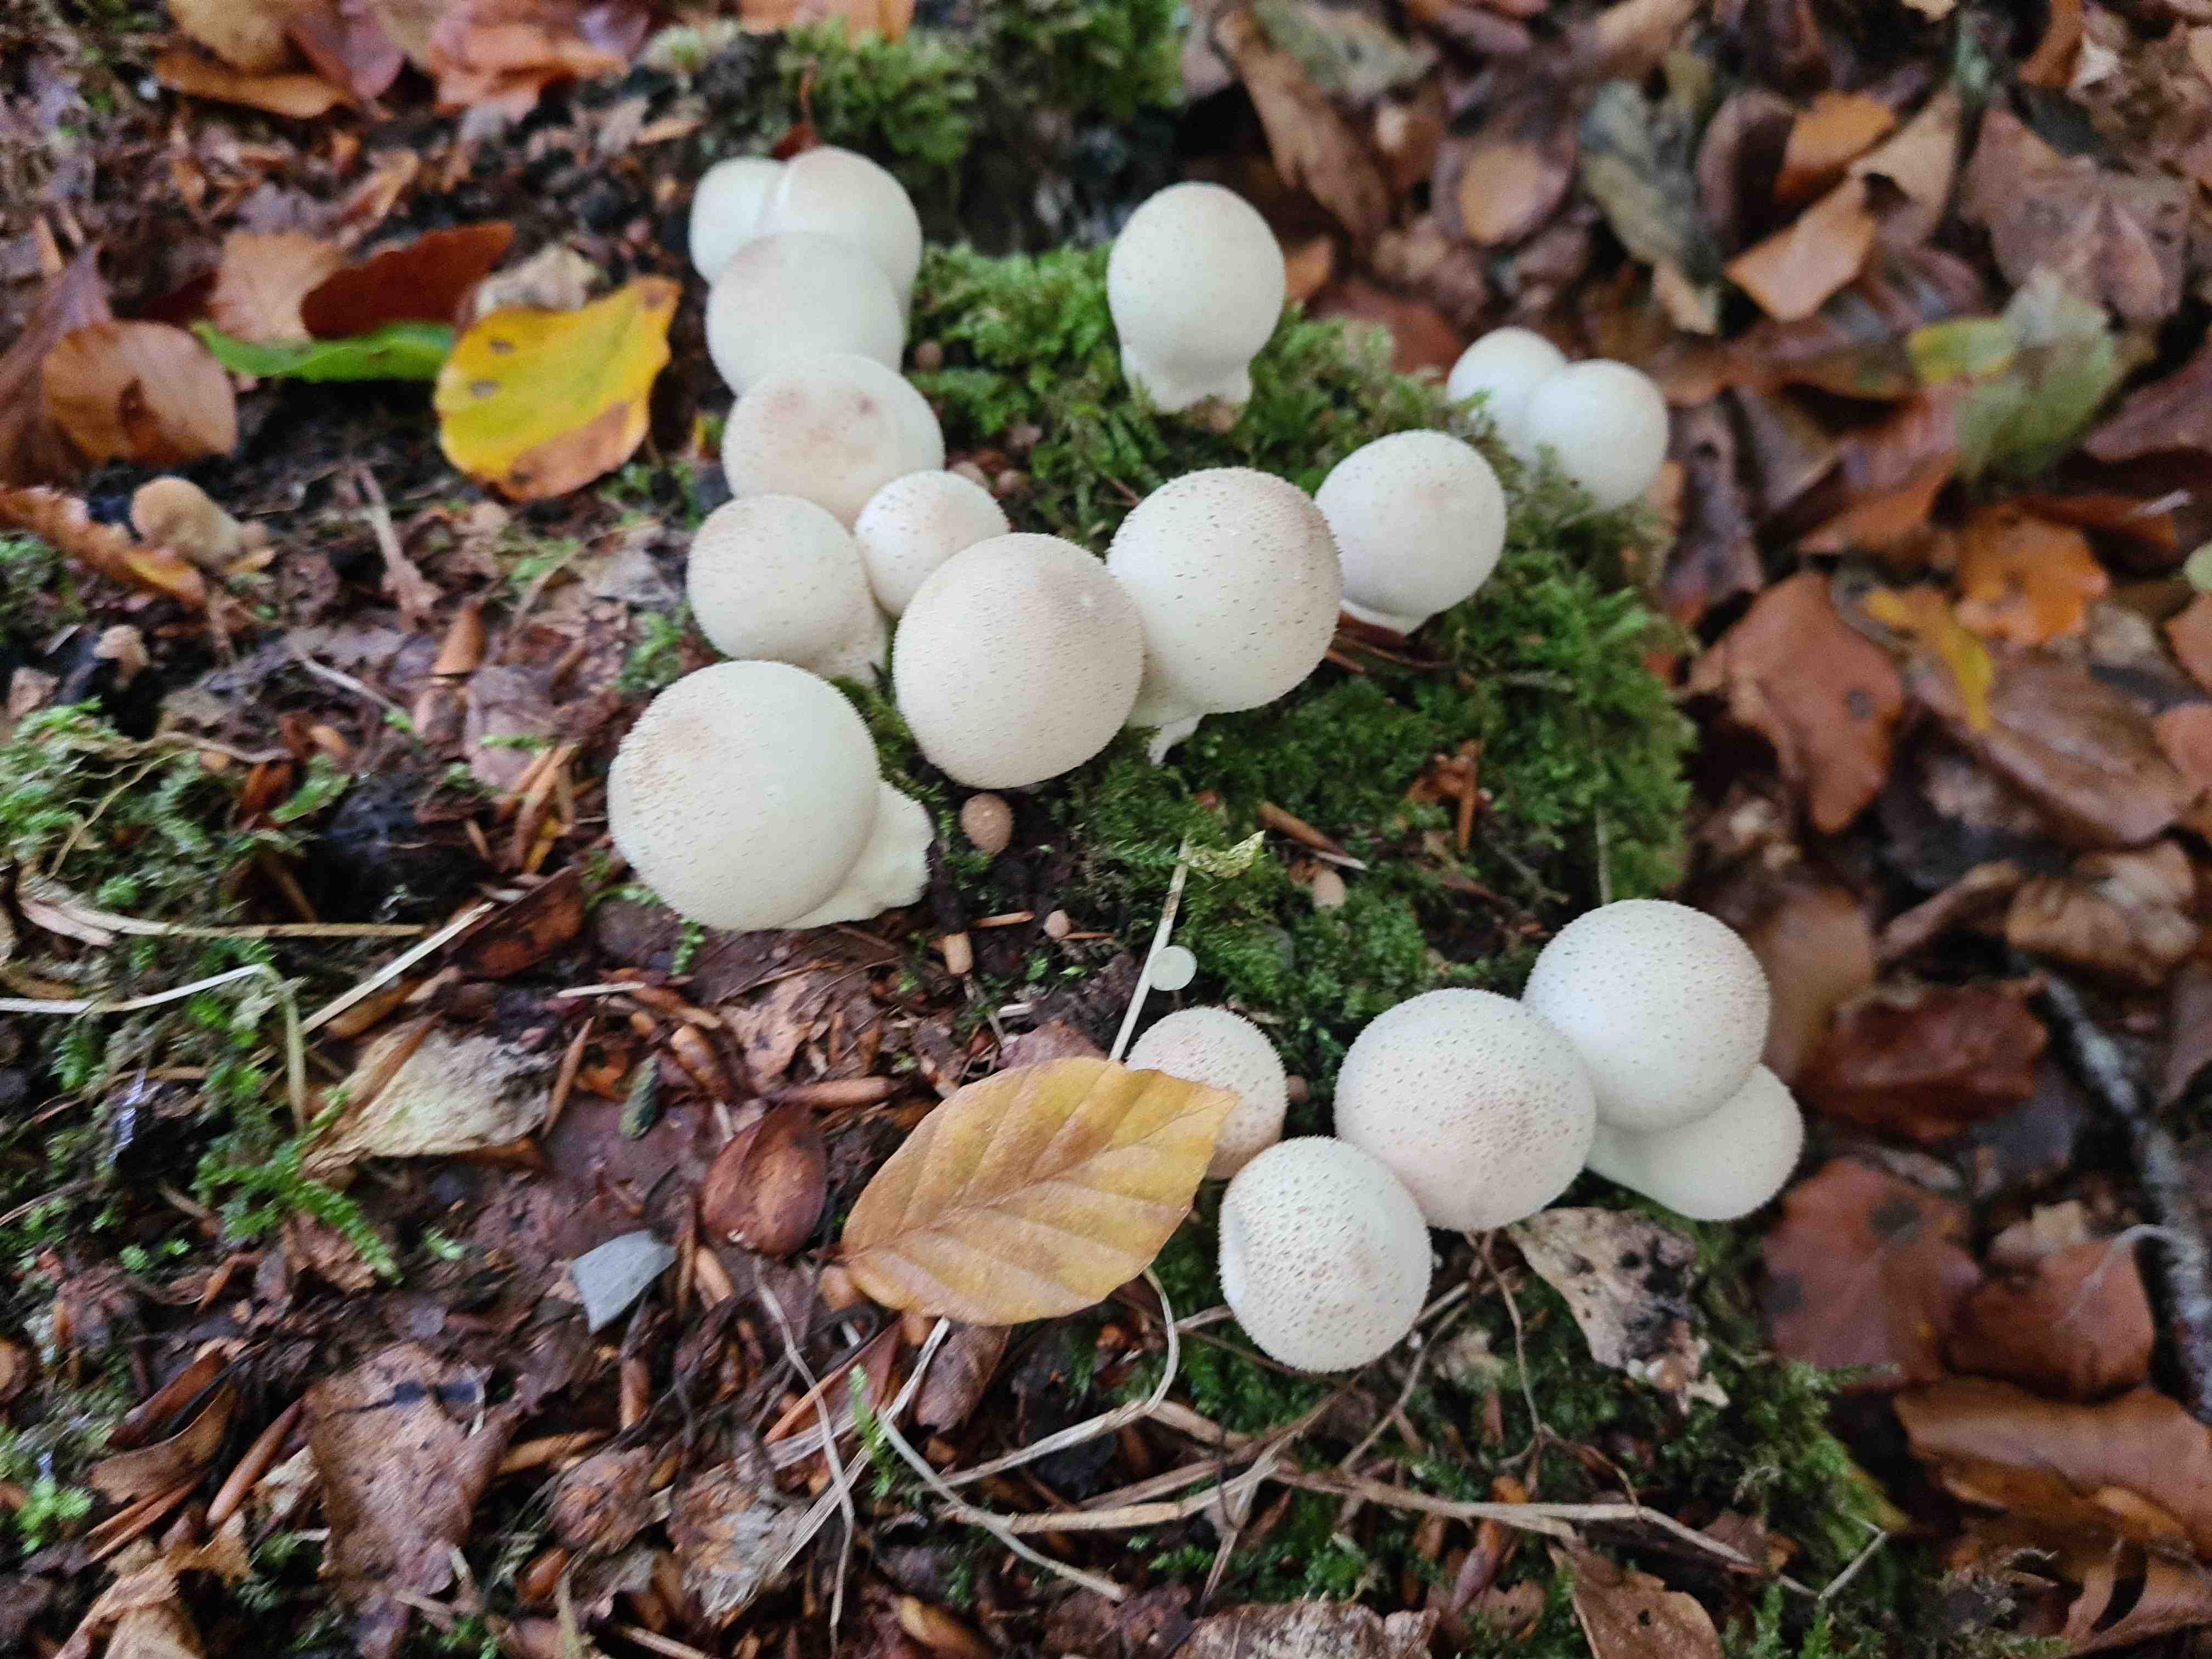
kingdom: Fungi
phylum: Basidiomycota
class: Agaricomycetes
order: Agaricales
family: Lycoperdaceae
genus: Apioperdon
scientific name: Apioperdon pyriforme
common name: pære-støvbold
